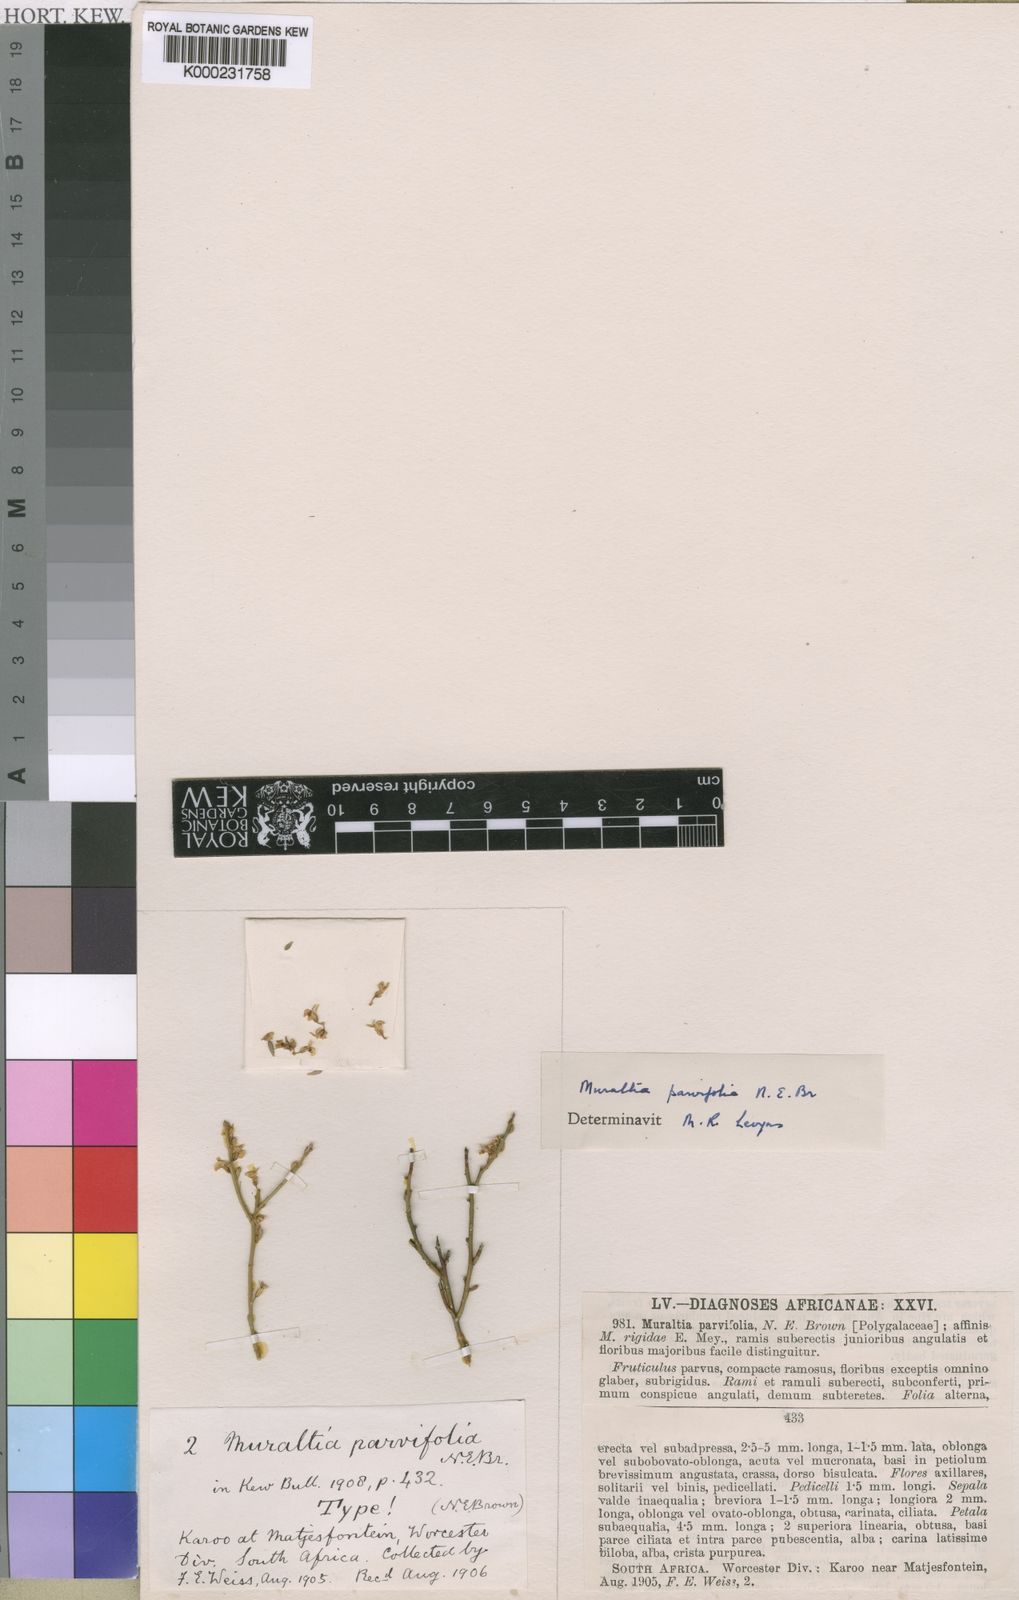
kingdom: Plantae
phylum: Tracheophyta
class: Magnoliopsida
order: Fabales
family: Polygalaceae
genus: Muraltia
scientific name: Muraltia scoparia
